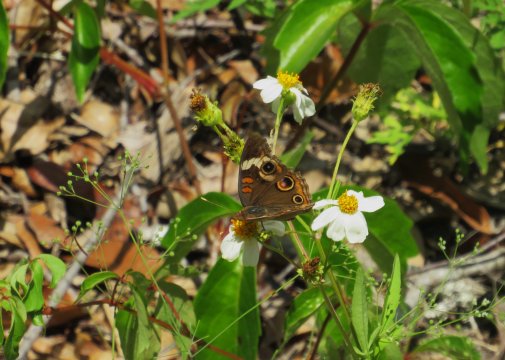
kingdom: Animalia
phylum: Arthropoda
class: Insecta
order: Lepidoptera
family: Nymphalidae
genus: Junonia
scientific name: Junonia coenia
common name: Common Buckeye
